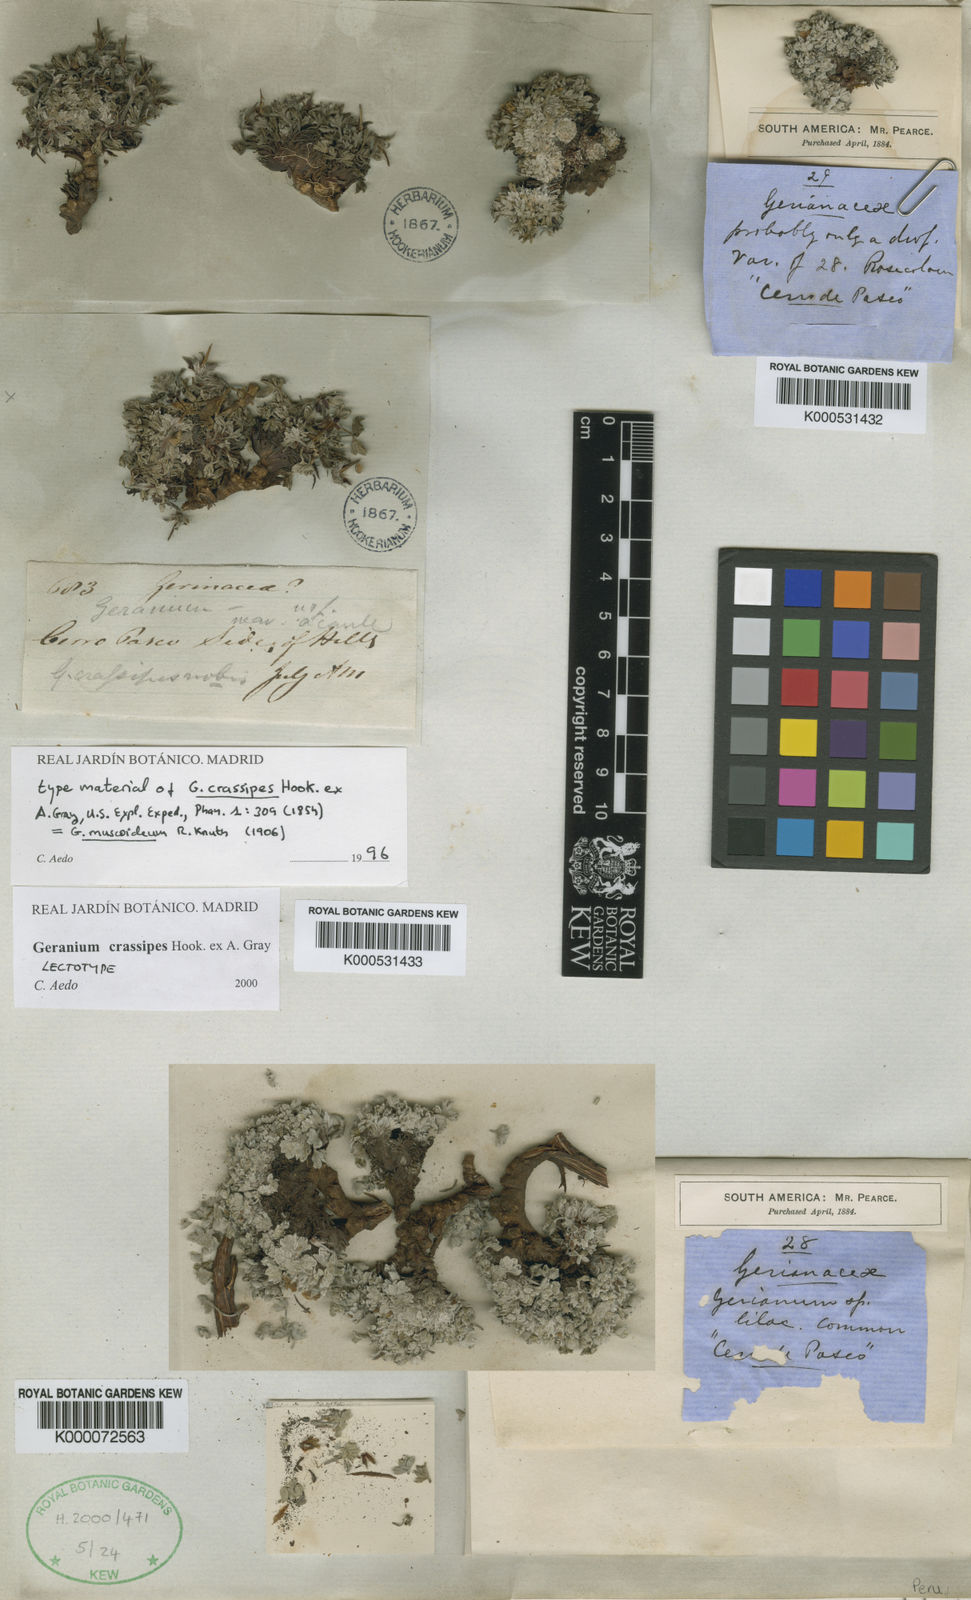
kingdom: Plantae
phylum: Tracheophyta
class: Magnoliopsida
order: Geraniales
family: Geraniaceae
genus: Geranium
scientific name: Geranium crassipes
